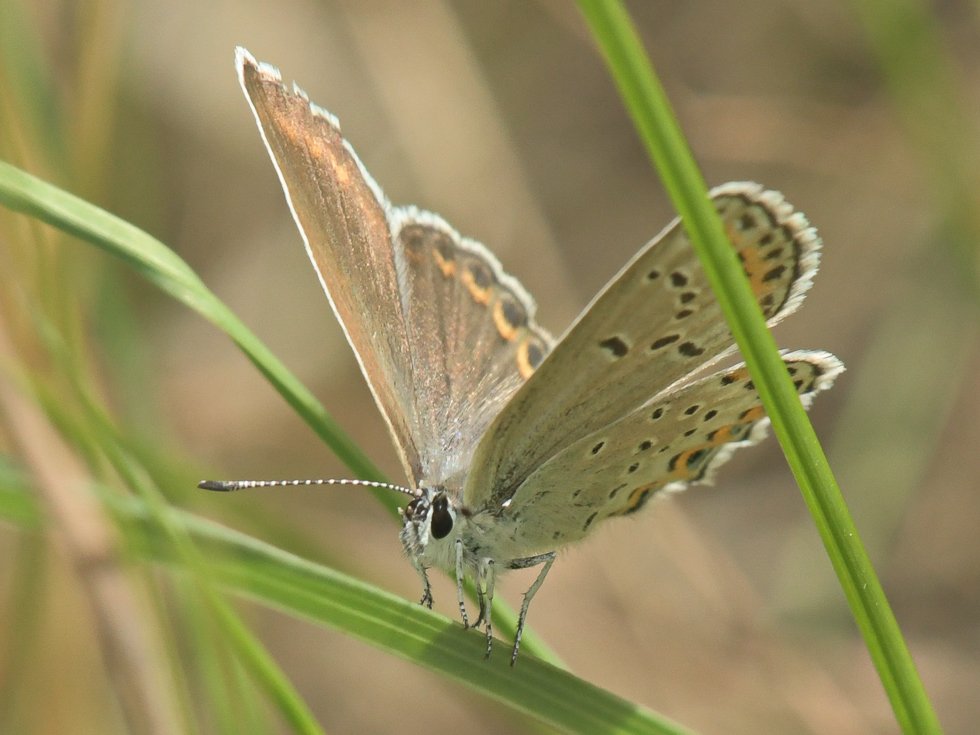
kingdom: Animalia
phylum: Arthropoda
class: Insecta
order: Lepidoptera
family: Lycaenidae
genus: Lycaeides
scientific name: Lycaeides melissa
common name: Melissa Blue
